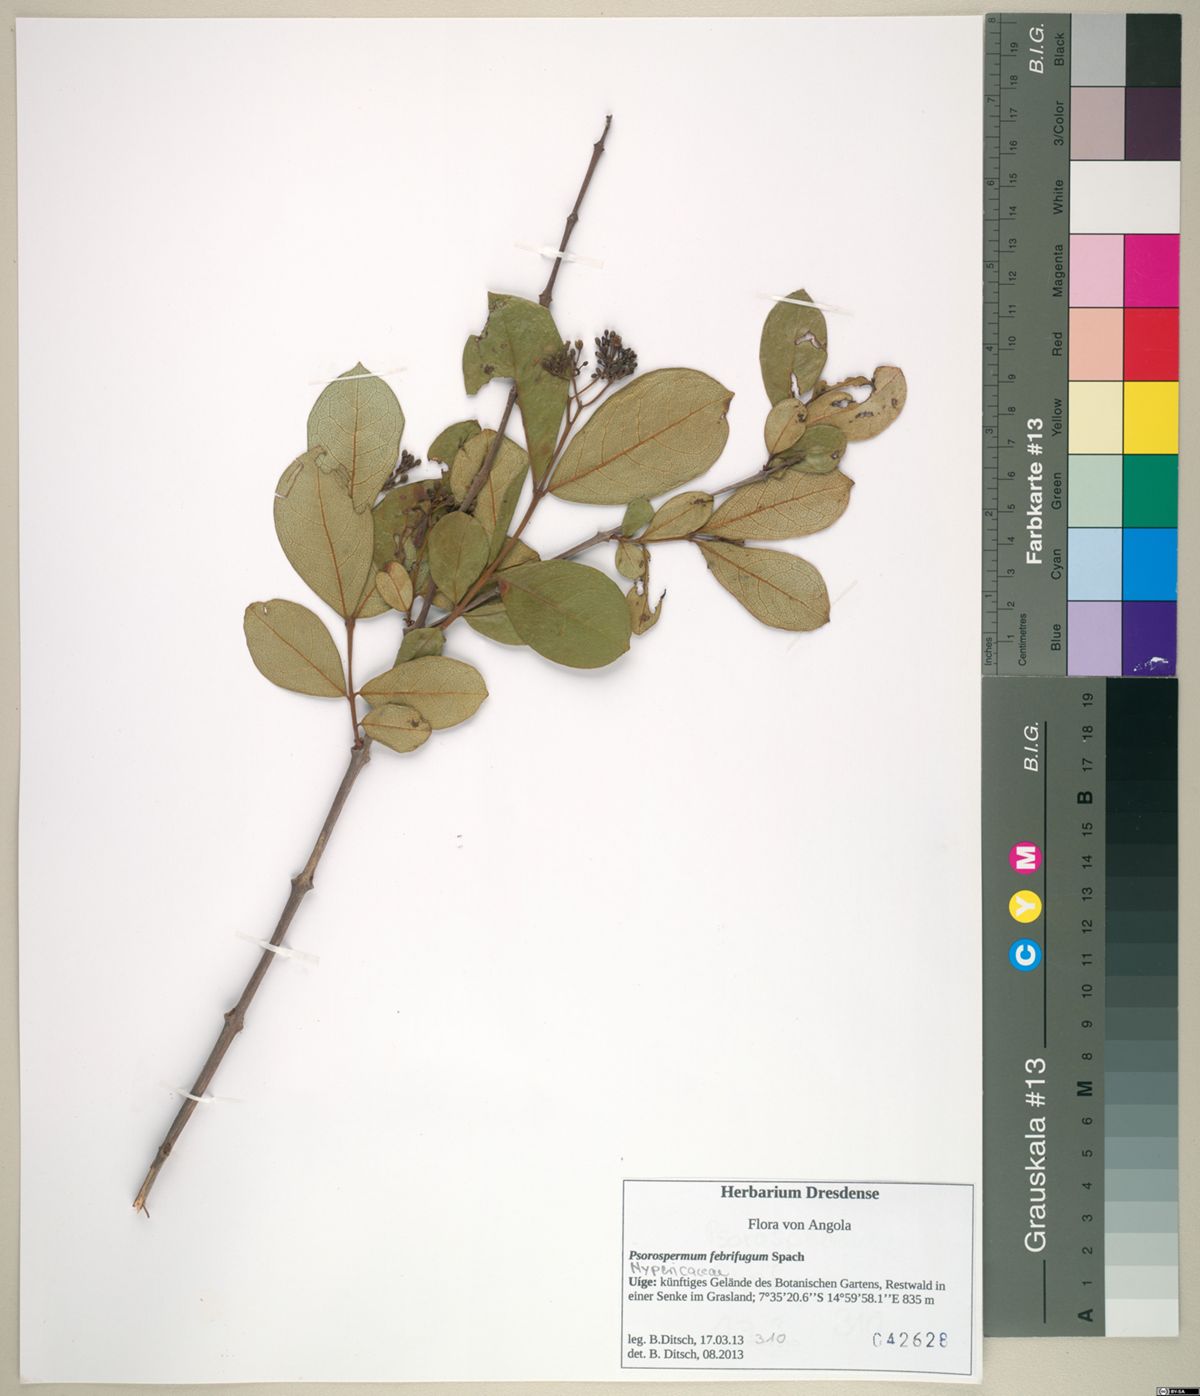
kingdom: Plantae
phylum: Tracheophyta
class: Magnoliopsida
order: Malpighiales
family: Hypericaceae
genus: Psorospermum
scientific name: Psorospermum febrifugum
